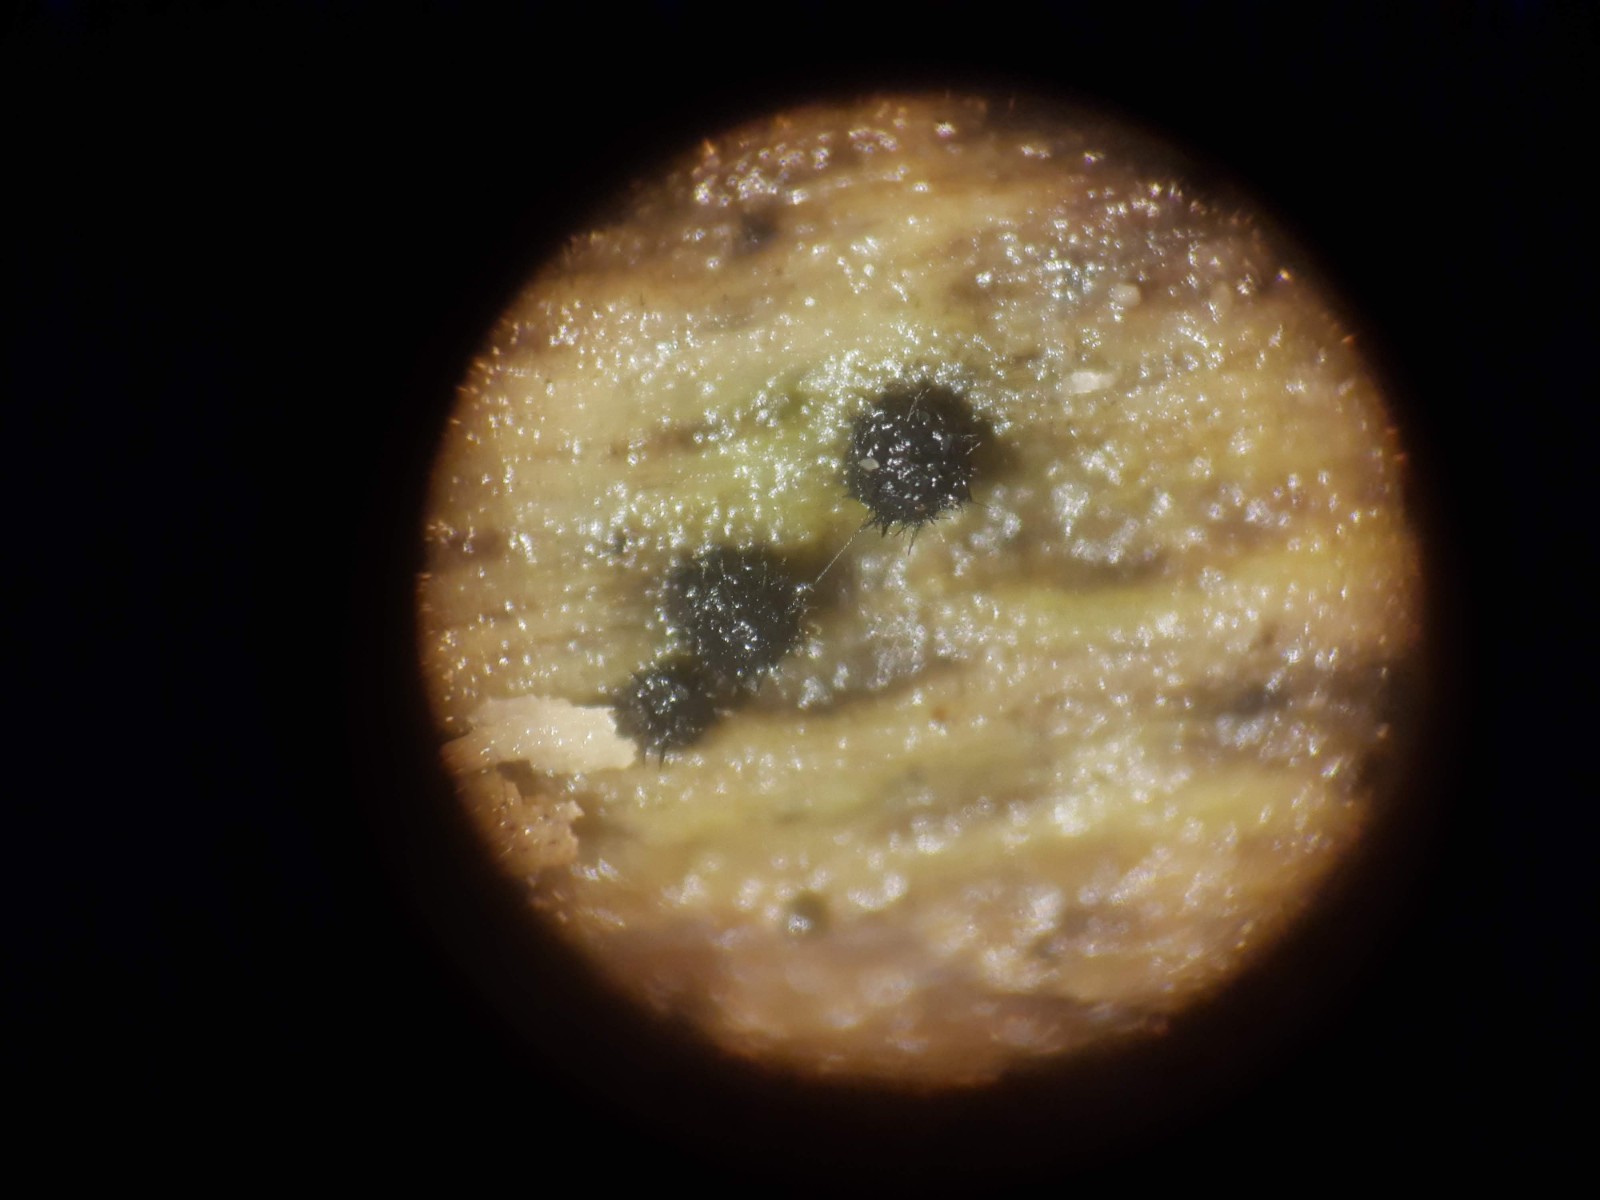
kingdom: Fungi
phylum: Ascomycota
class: Sordariomycetes
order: Sordariales
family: Lasiosphaeridaceae
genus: Lasiosphaeris
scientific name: Lasiosphaeris hirsuta
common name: sorthåret kernesvamp
